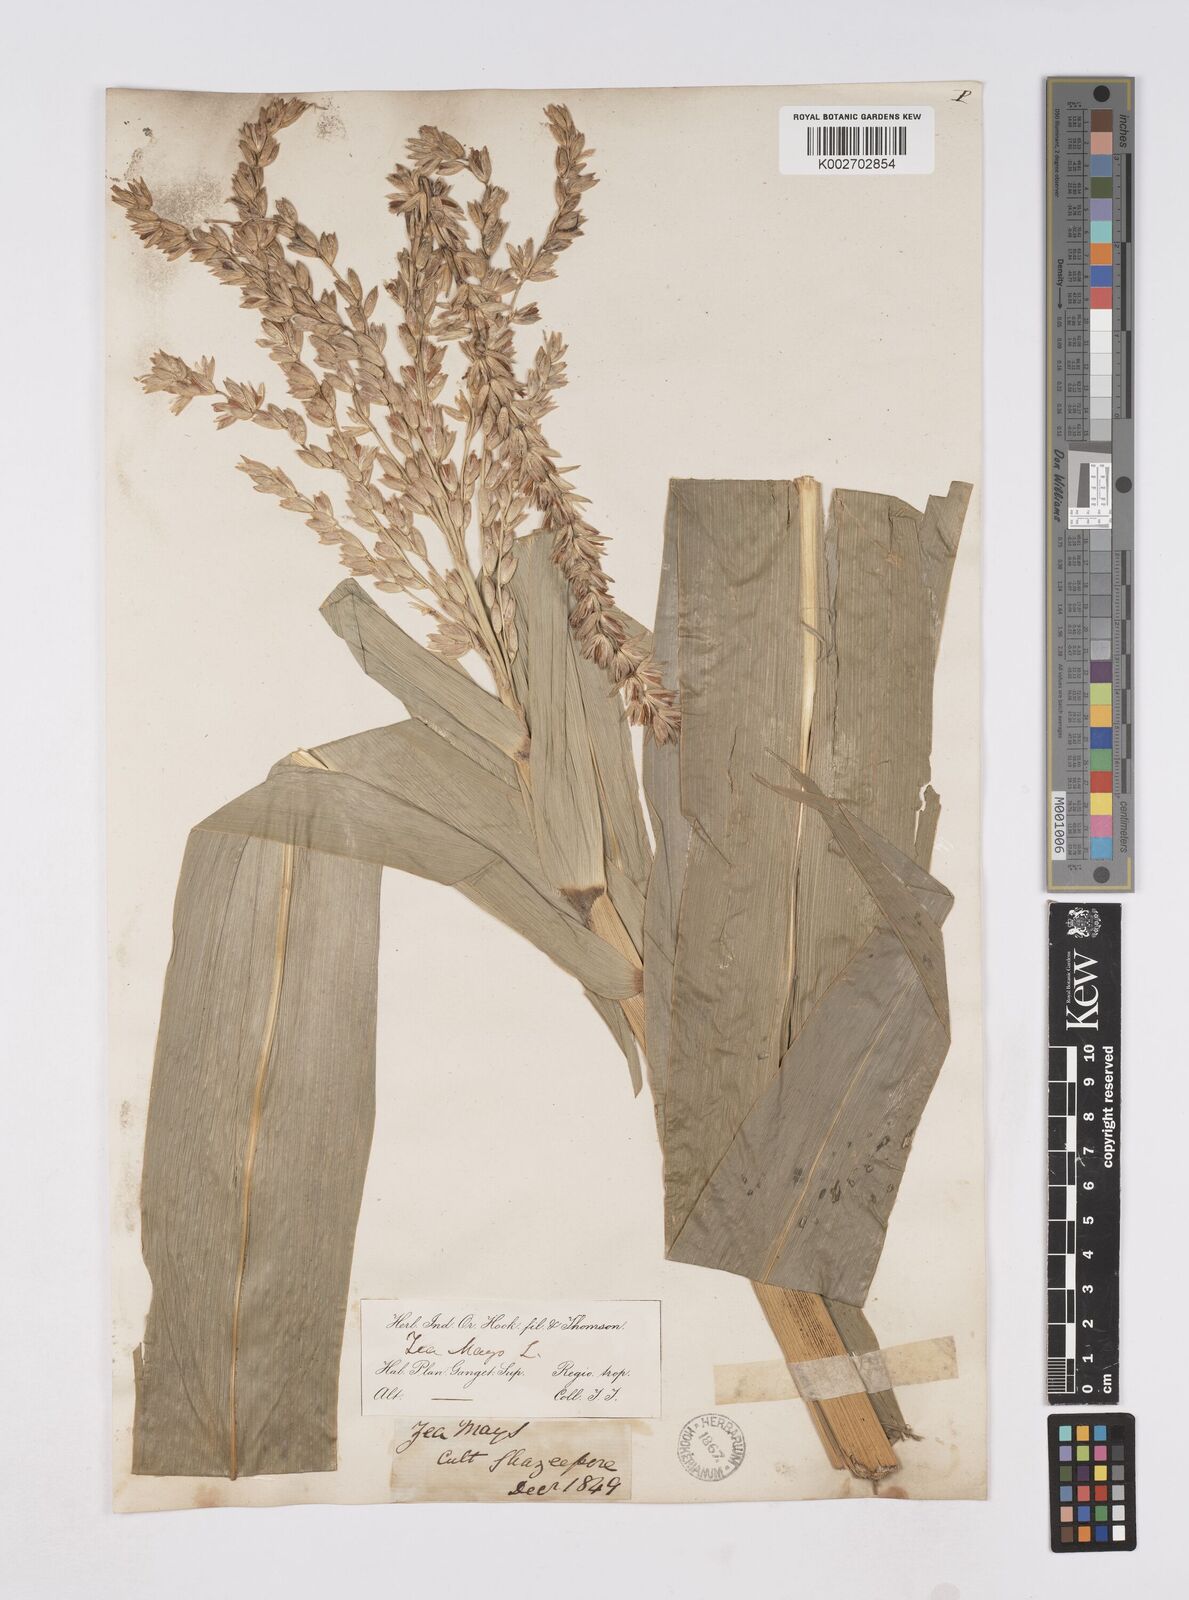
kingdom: Plantae
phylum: Tracheophyta
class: Liliopsida
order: Poales
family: Poaceae
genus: Zea
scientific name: Zea mays
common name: Maize
